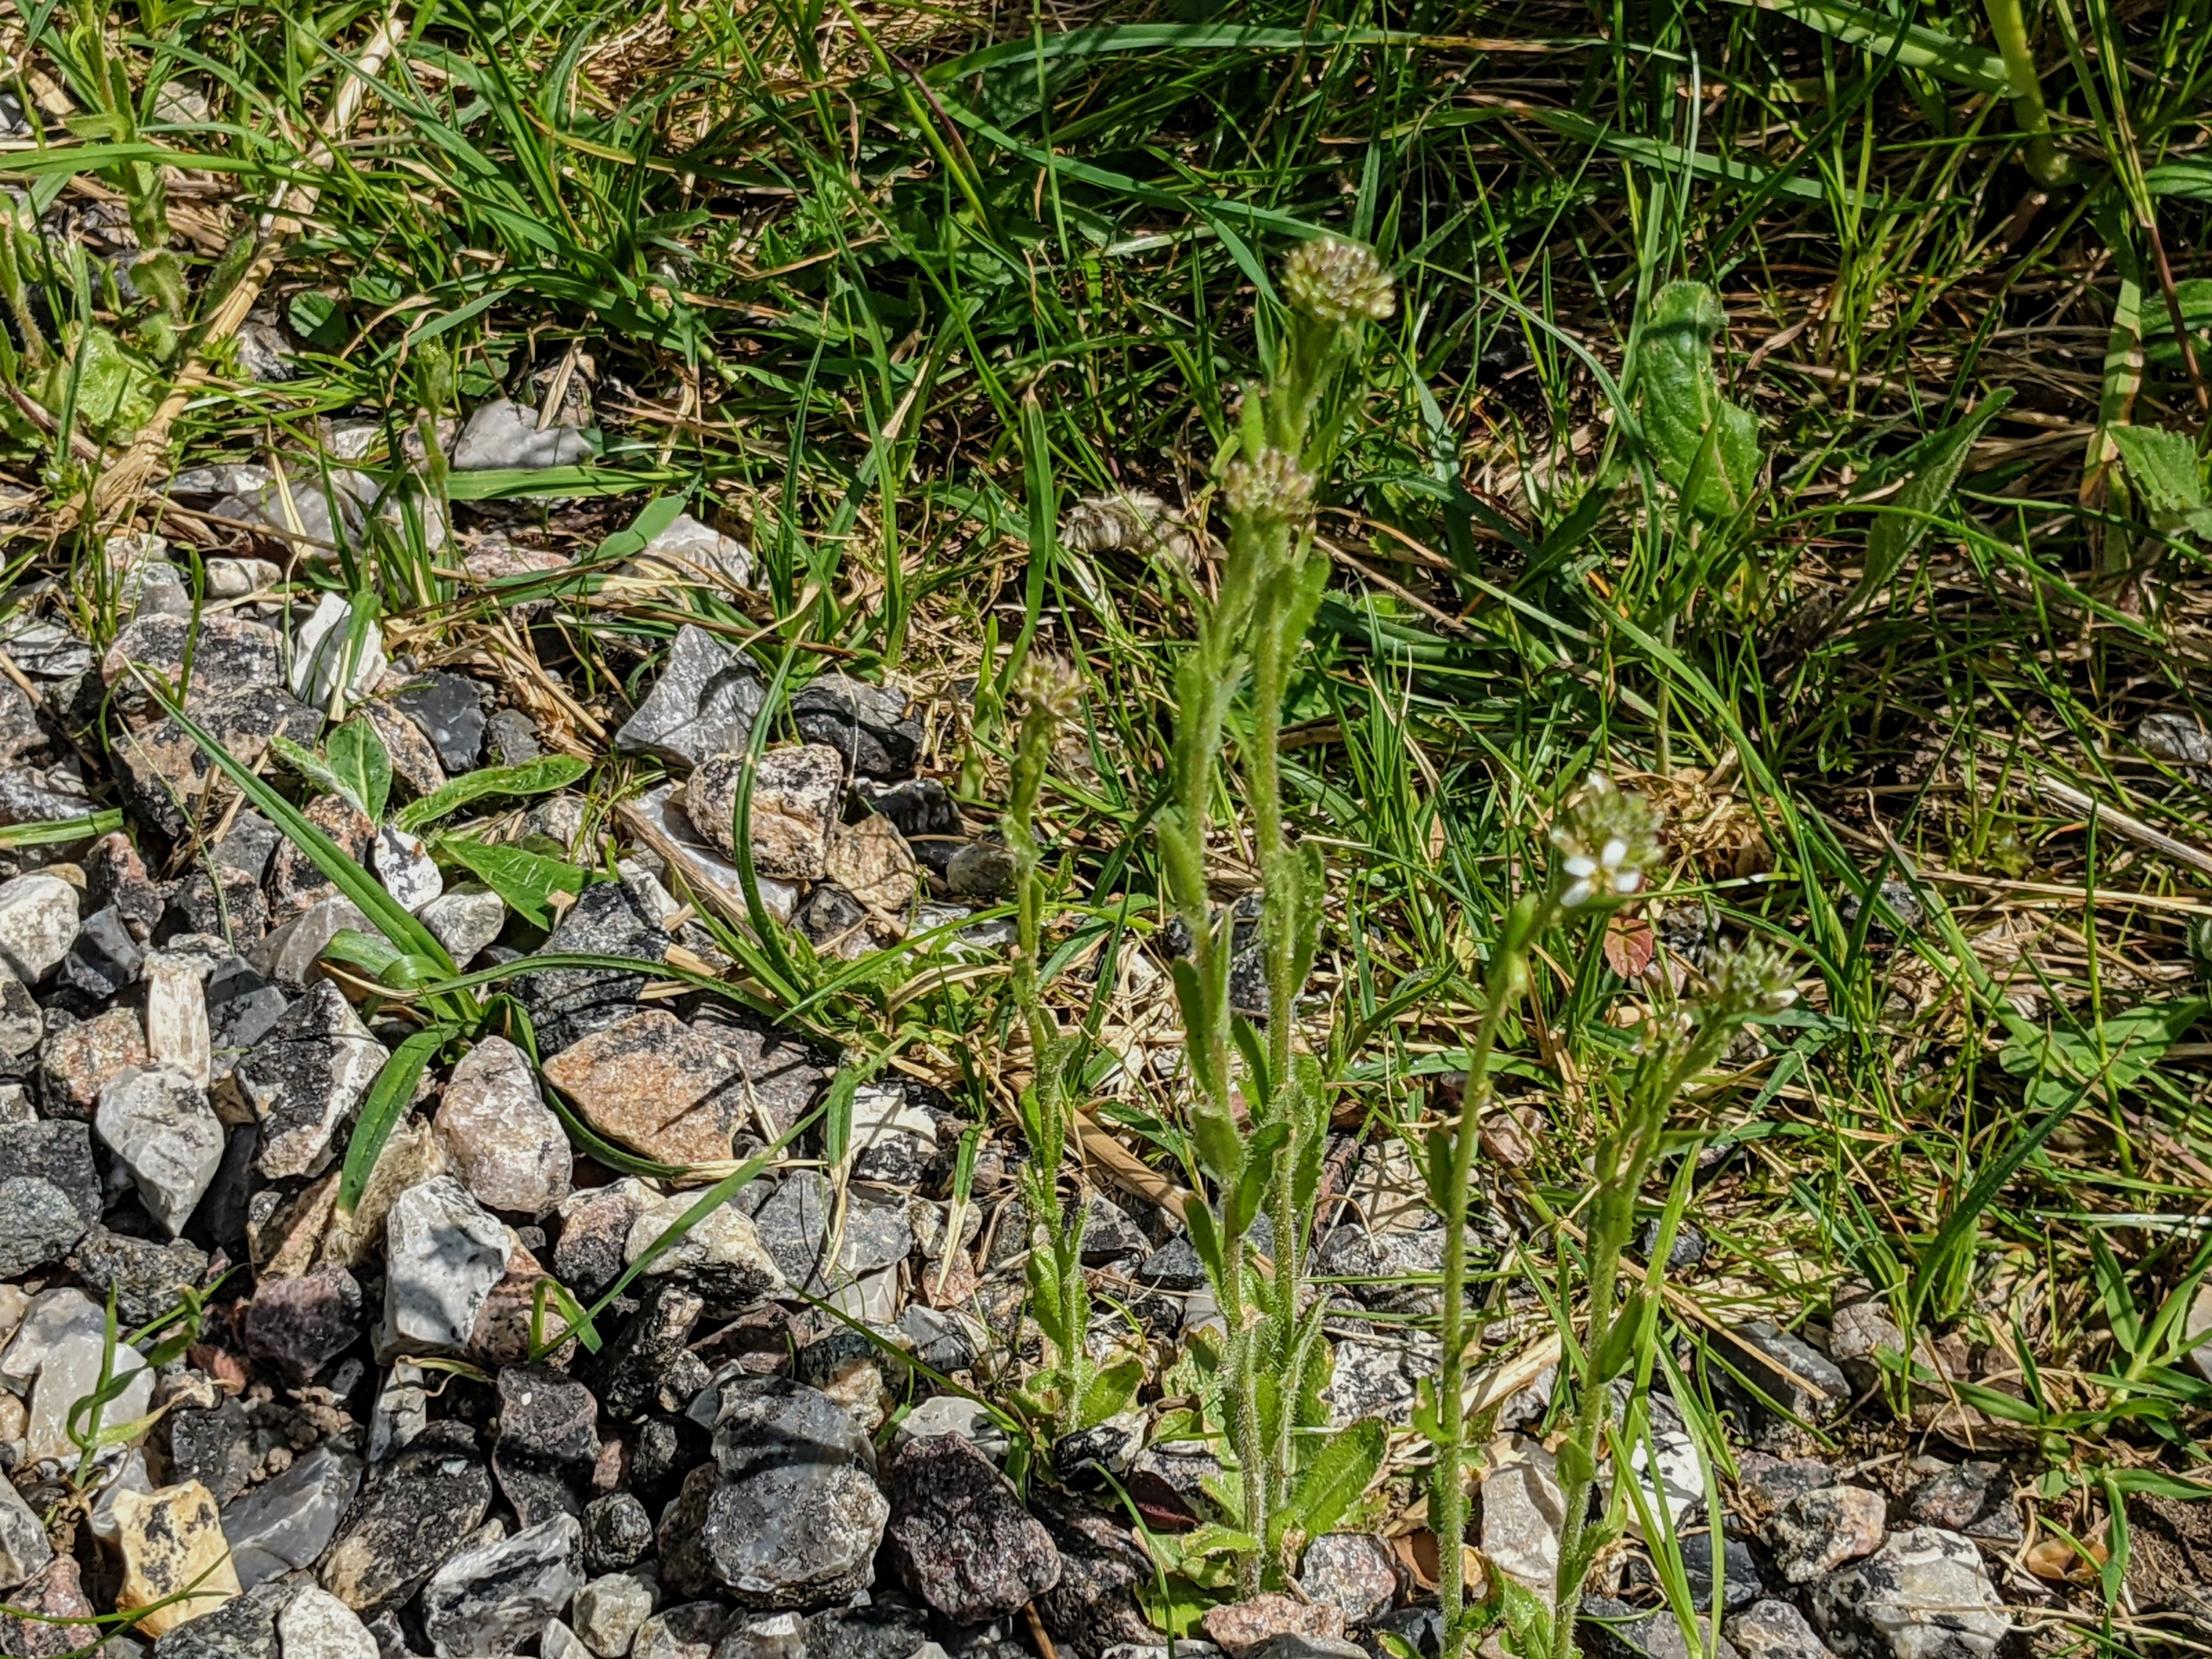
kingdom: Plantae
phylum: Tracheophyta
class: Magnoliopsida
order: Brassicales
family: Brassicaceae
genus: Arabis
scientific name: Arabis hirsuta
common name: Stivhåret kalkkarse
